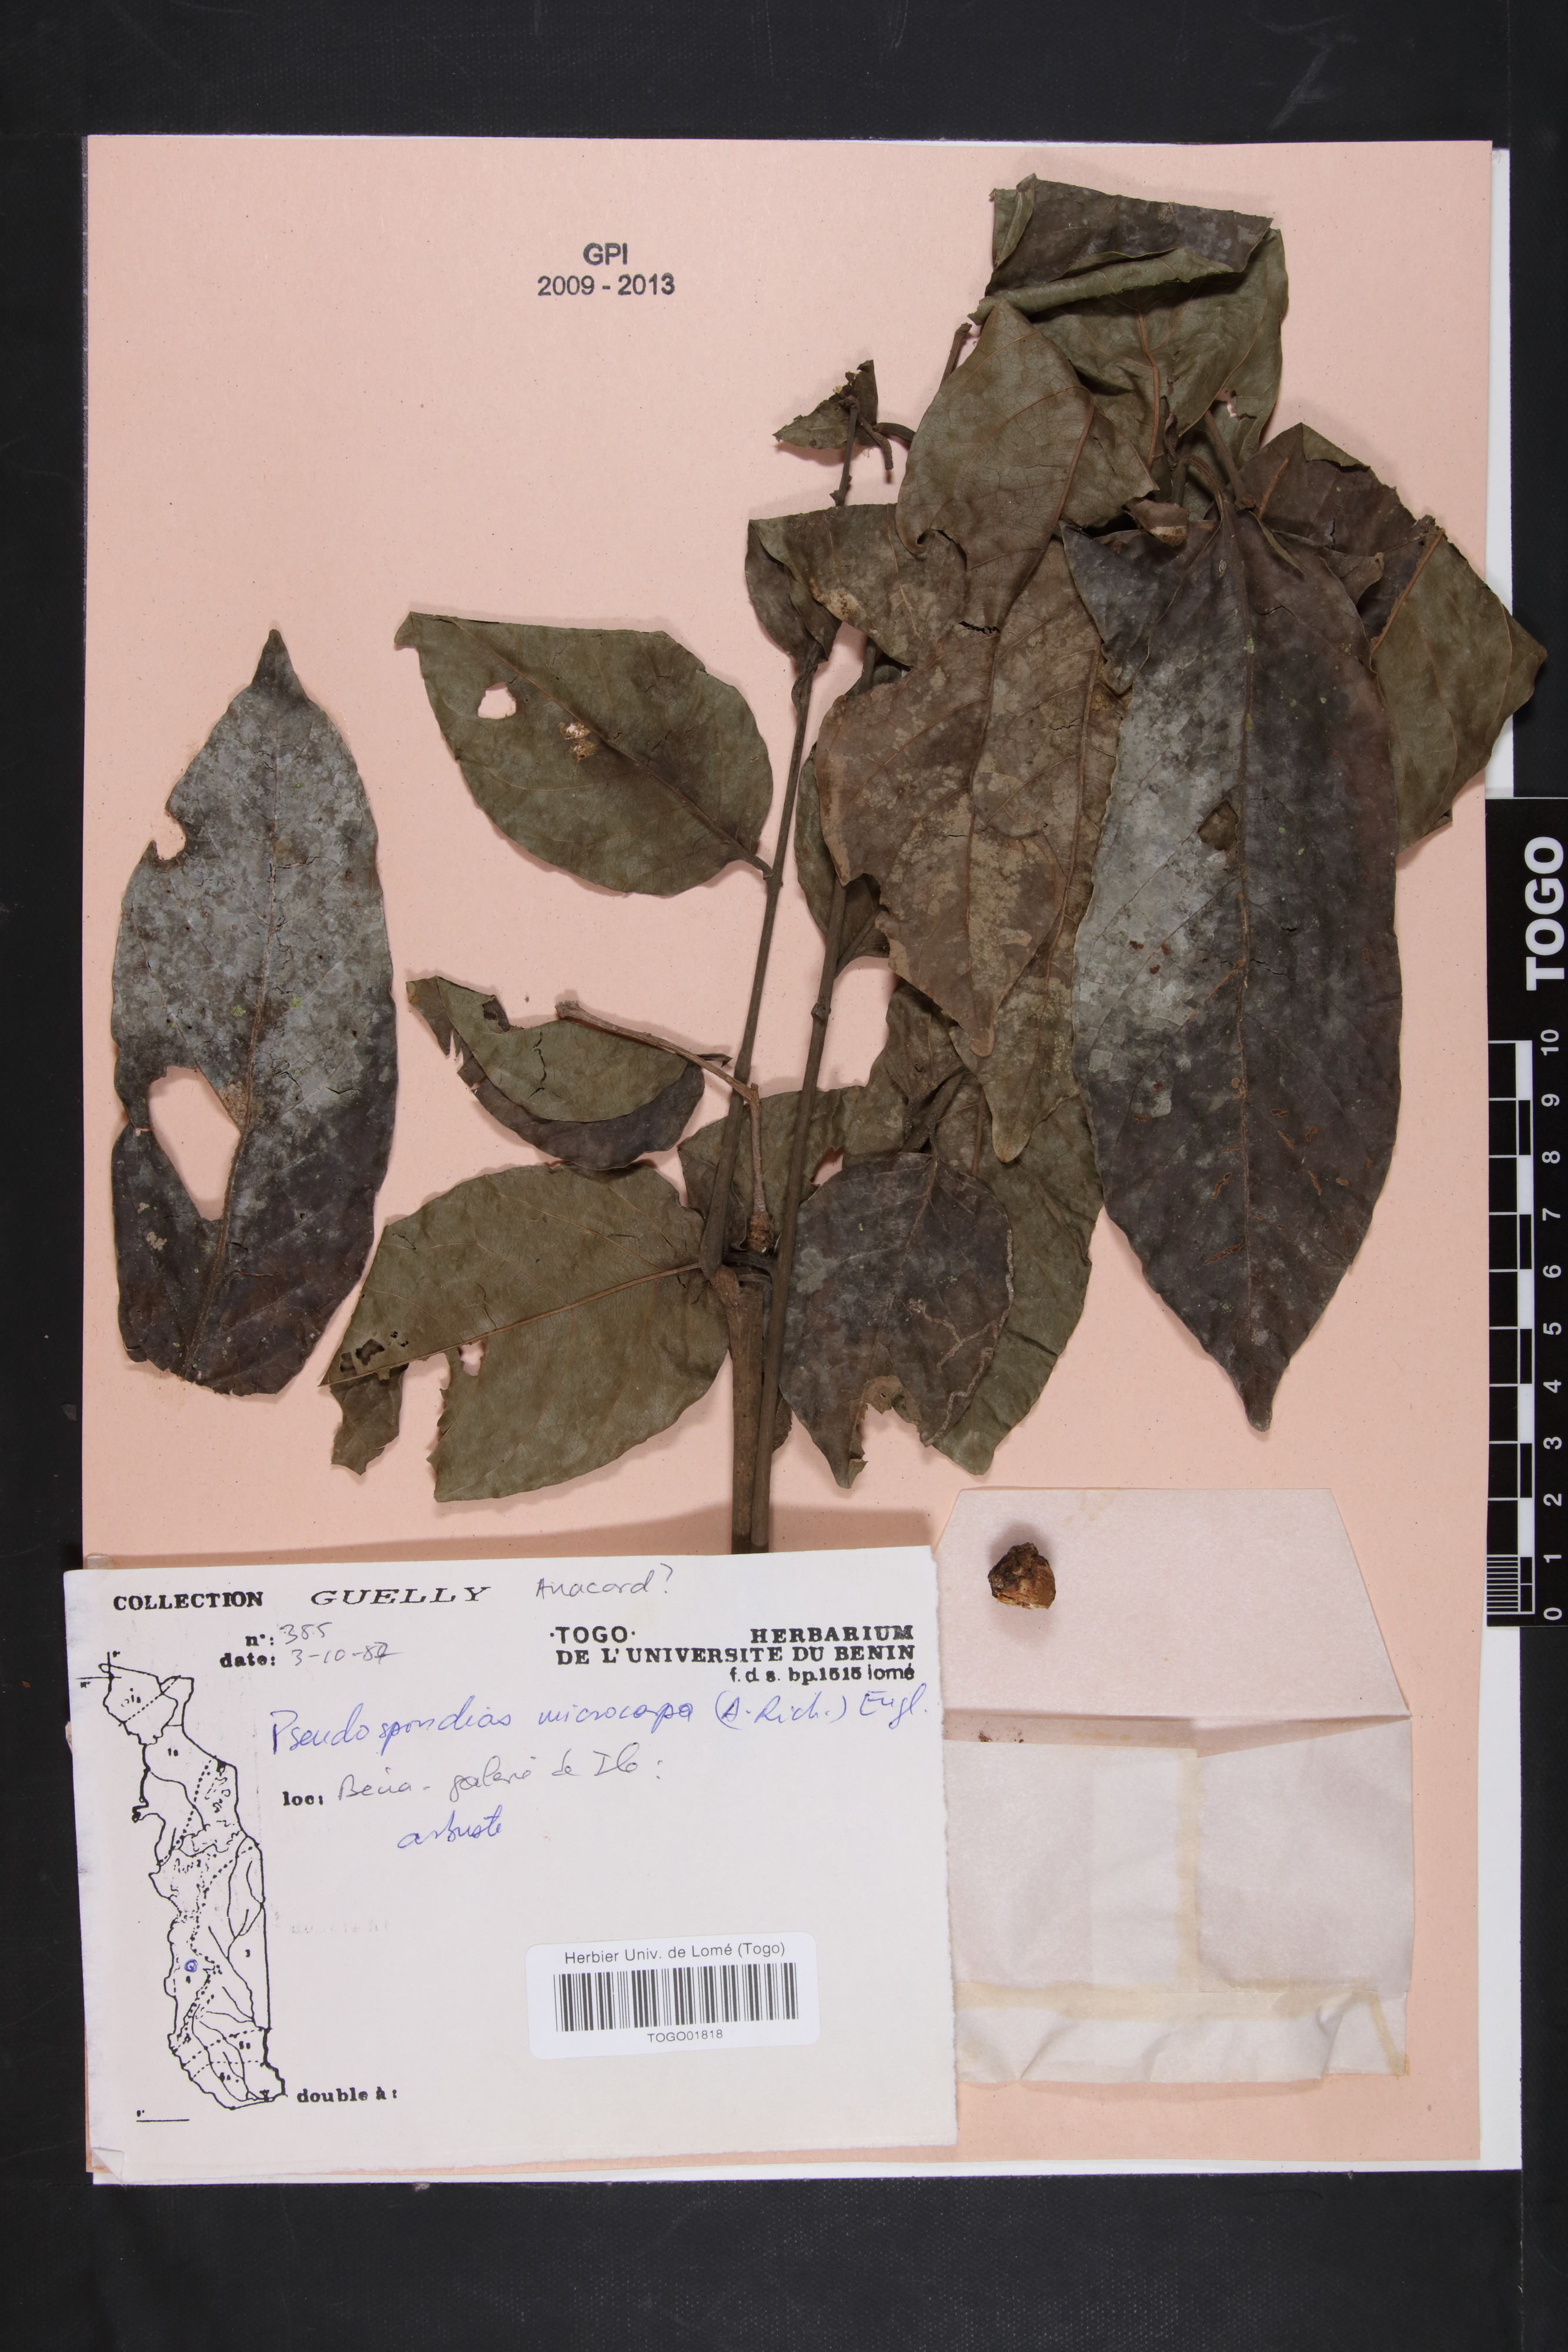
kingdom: Plantae
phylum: Tracheophyta
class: Magnoliopsida
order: Sapindales
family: Anacardiaceae
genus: Pseudospondias
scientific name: Pseudospondias microcarpa
